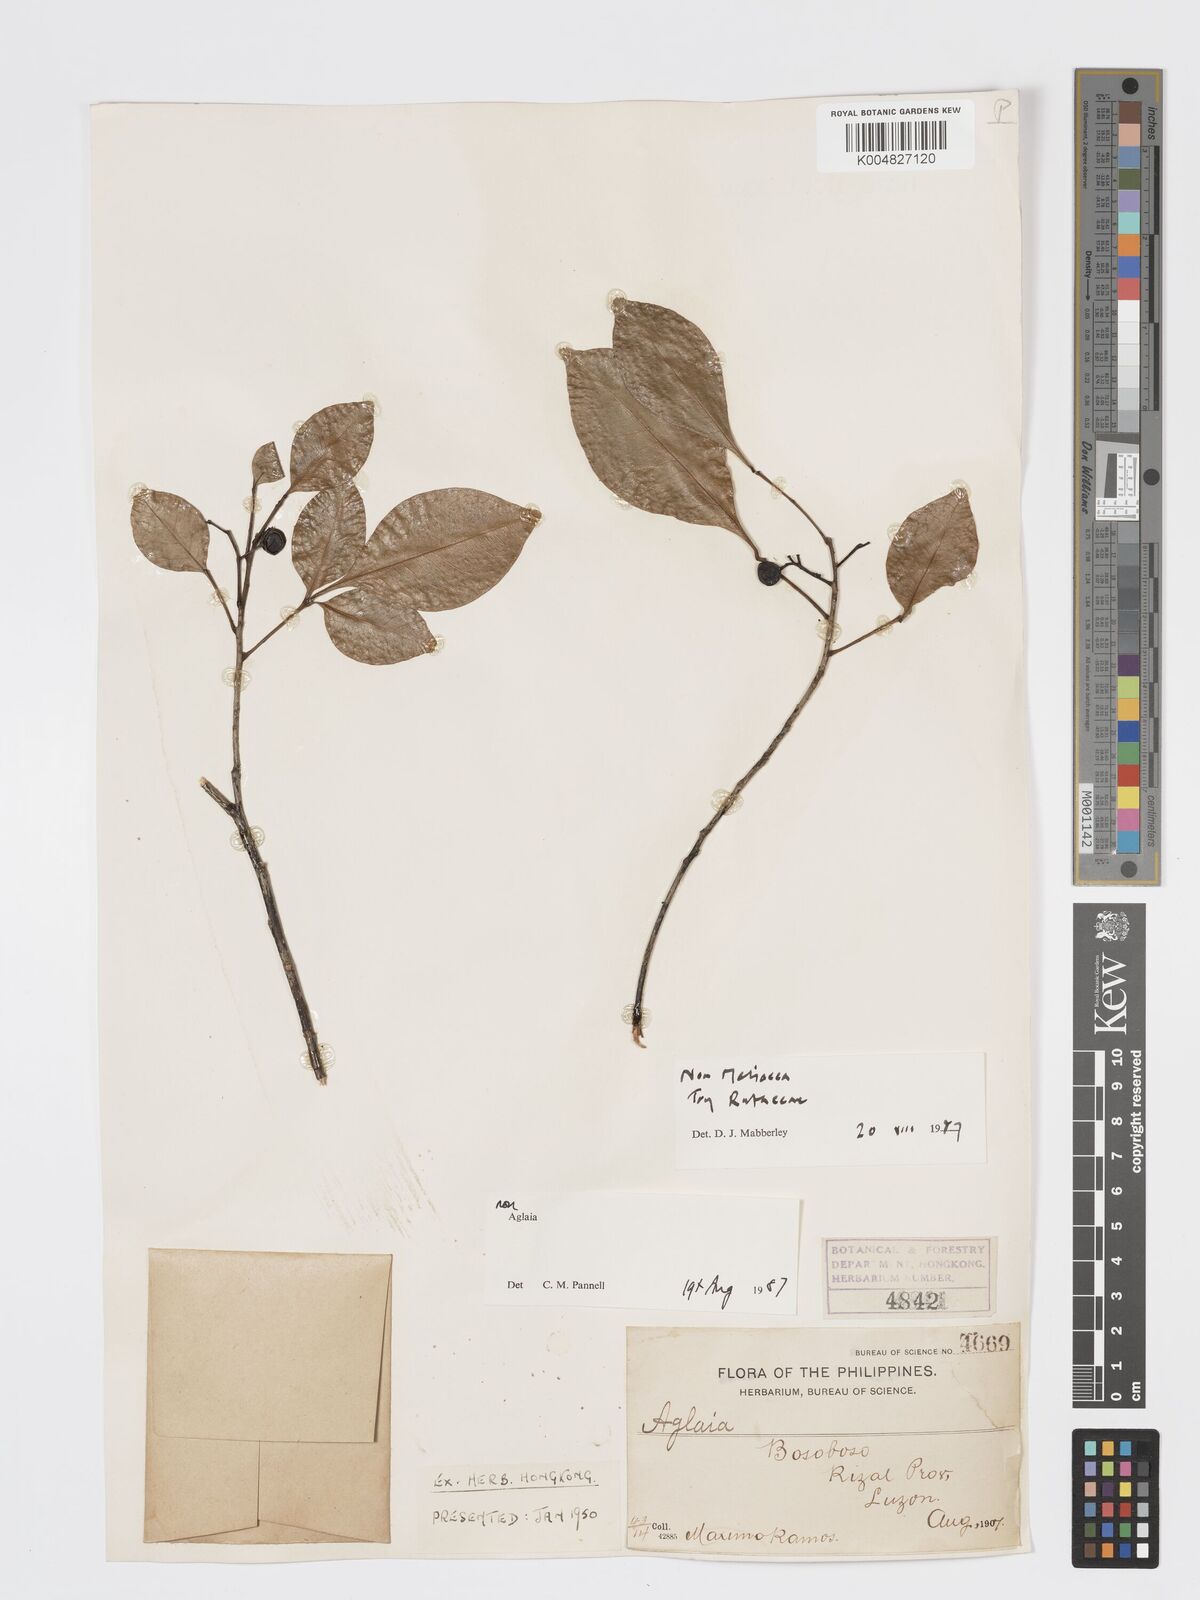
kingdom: Plantae
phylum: Tracheophyta
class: Magnoliopsida
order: Sapindales
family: Rutaceae
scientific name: Rutaceae
